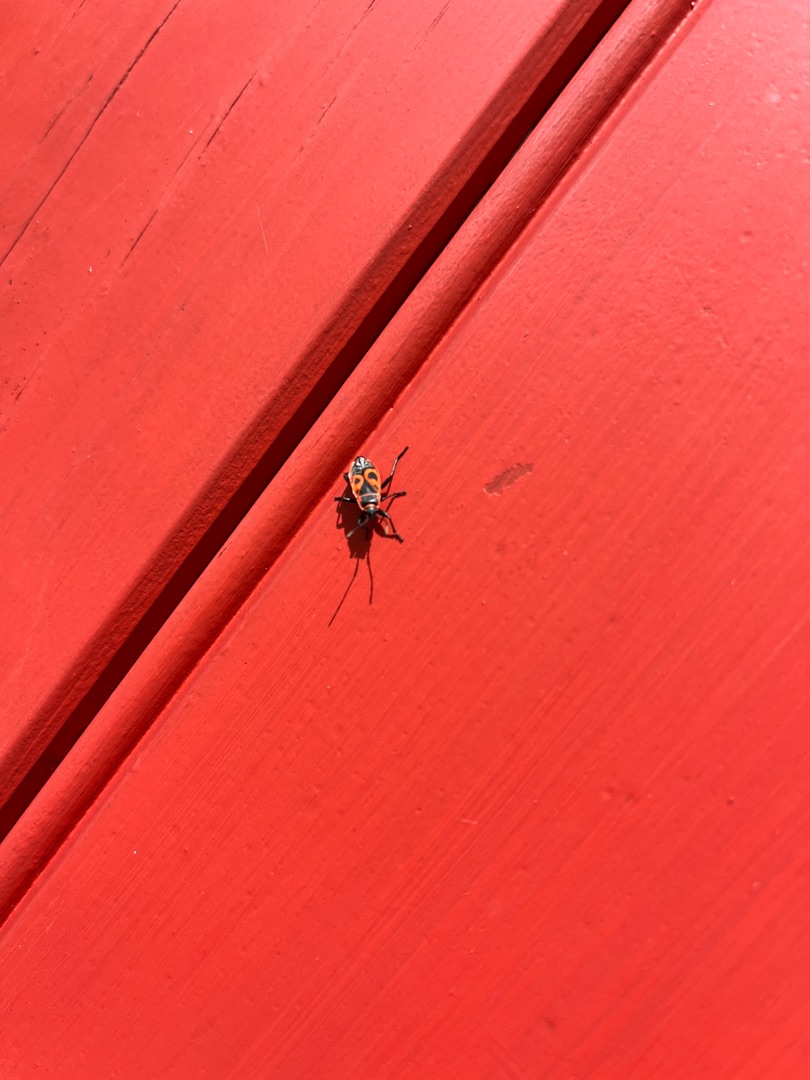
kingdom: Animalia
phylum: Arthropoda
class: Insecta
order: Hemiptera
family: Pyrrhocoridae
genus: Pyrrhocoris
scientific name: Pyrrhocoris apterus
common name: Ildtæge
